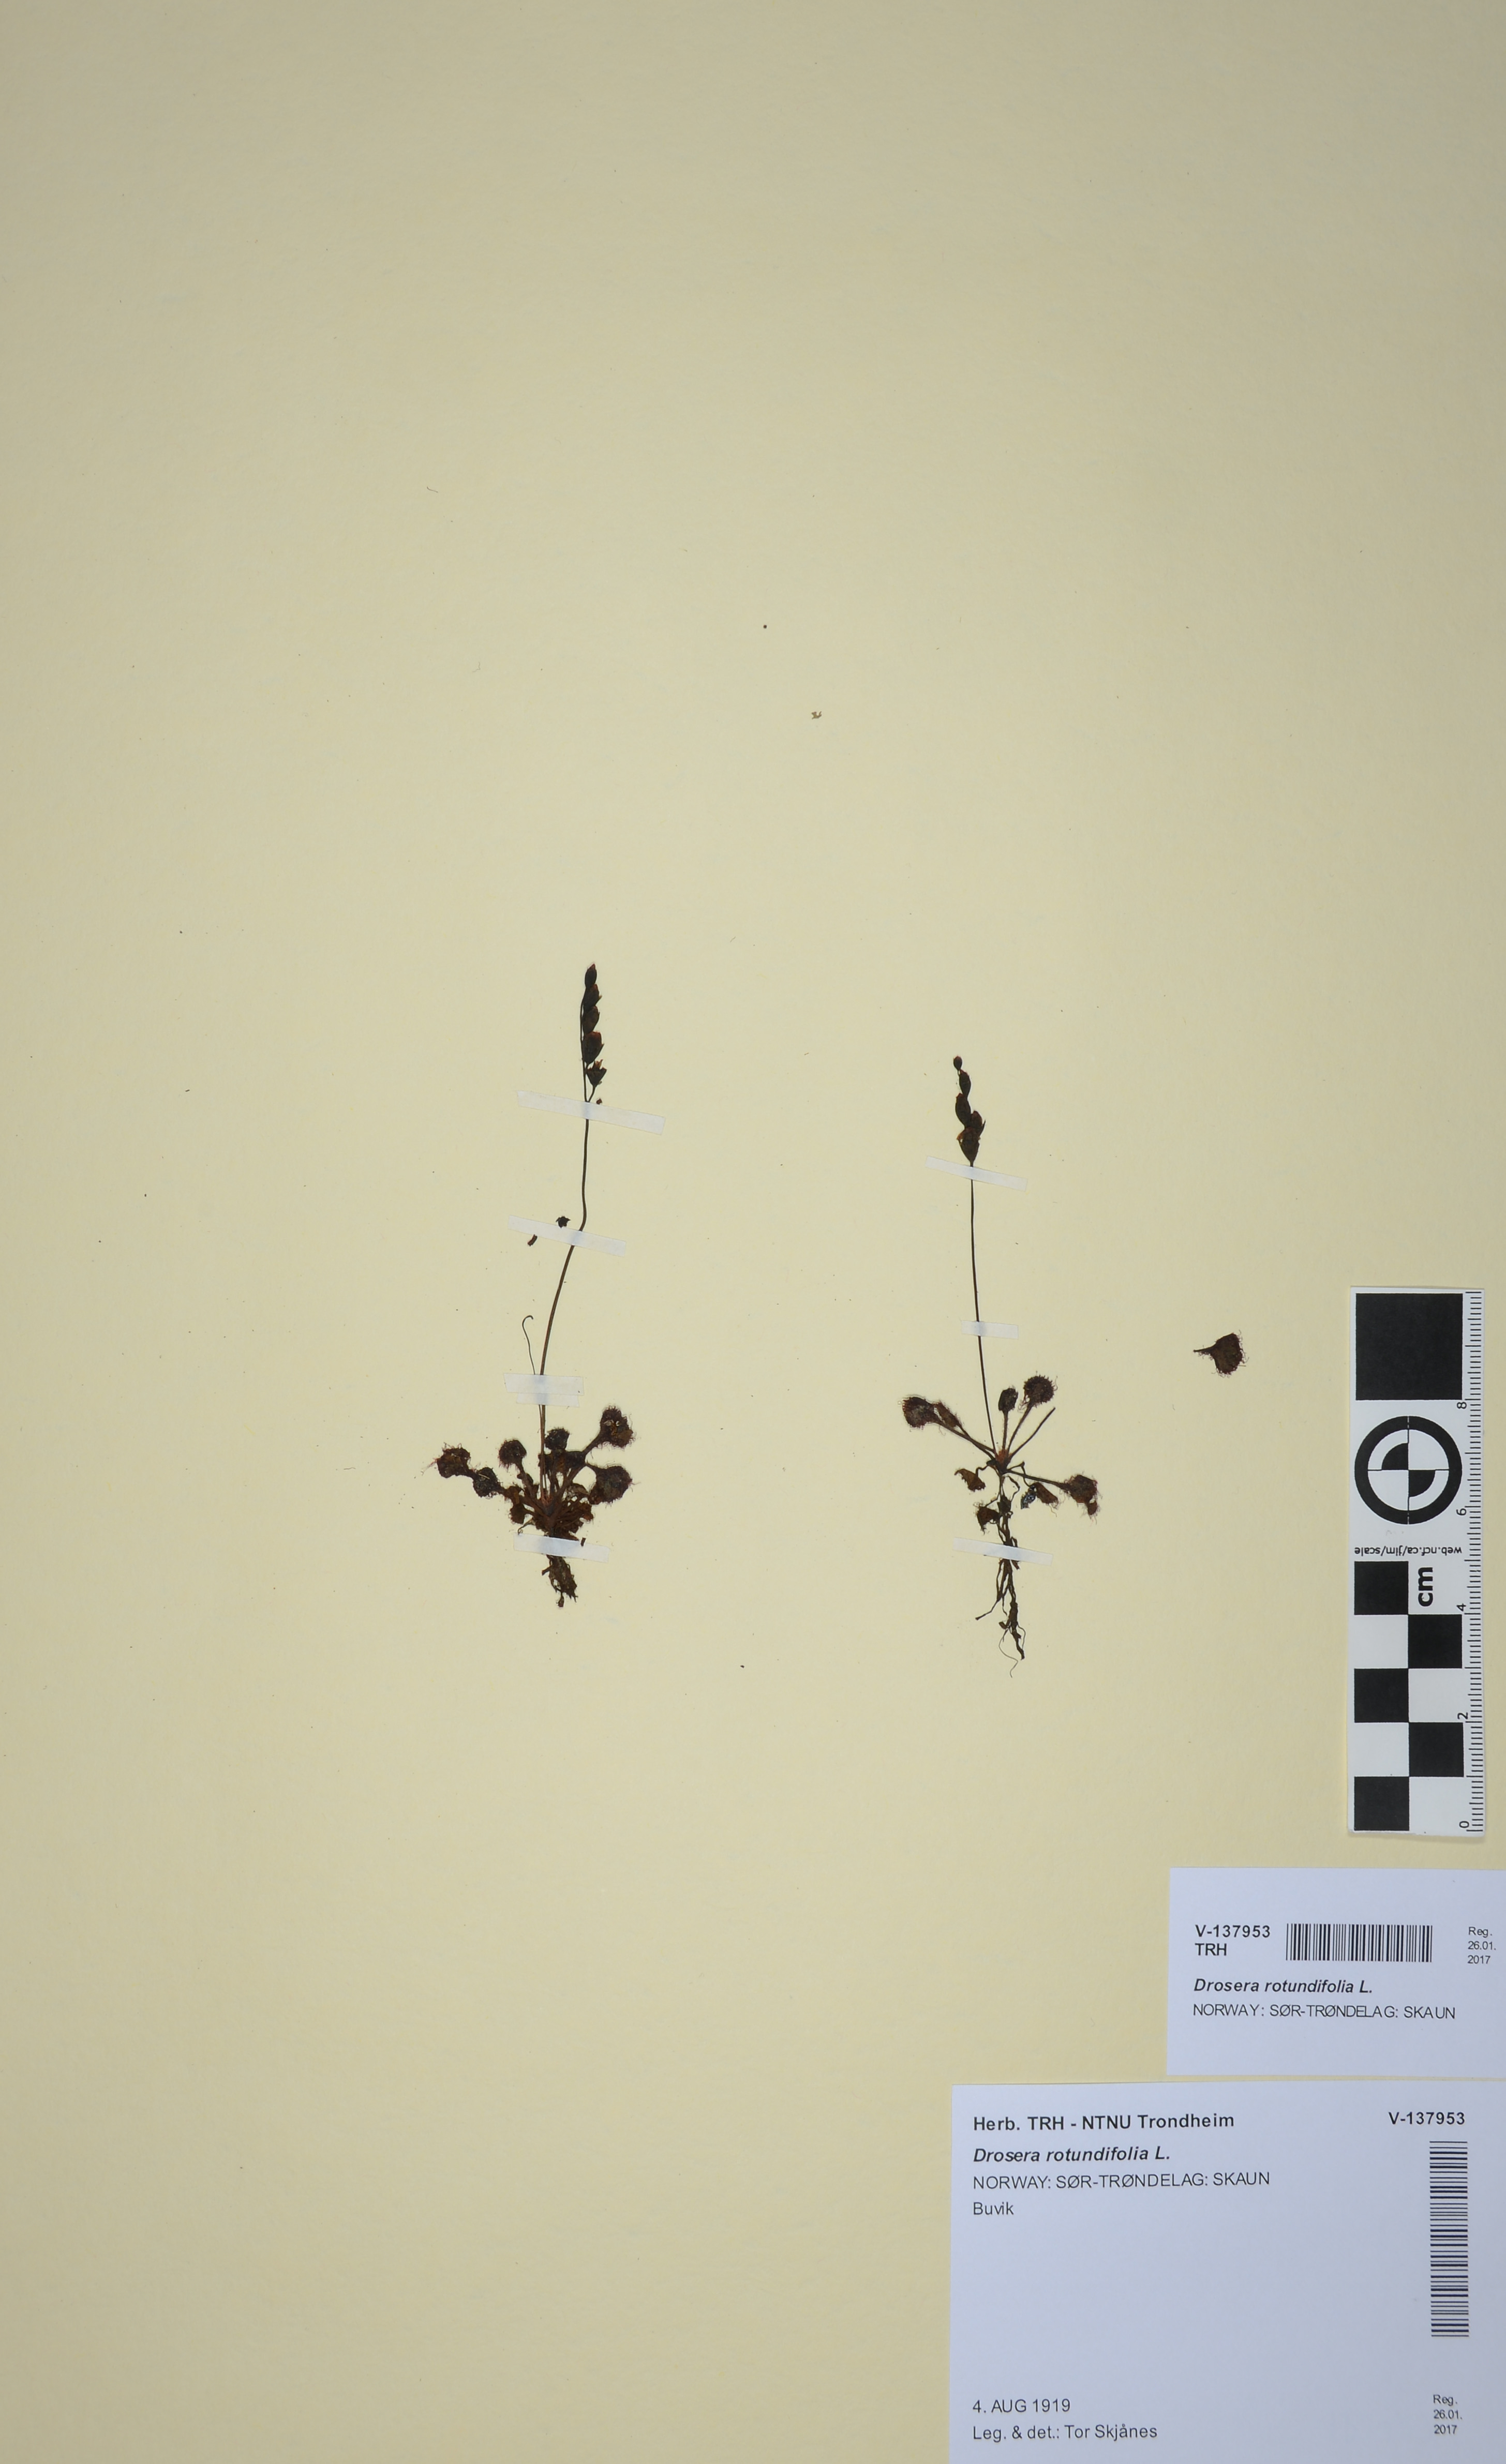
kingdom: Plantae
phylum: Tracheophyta
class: Magnoliopsida
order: Caryophyllales
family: Droseraceae
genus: Drosera
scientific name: Drosera rotundifolia
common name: Round-leaved sundew
